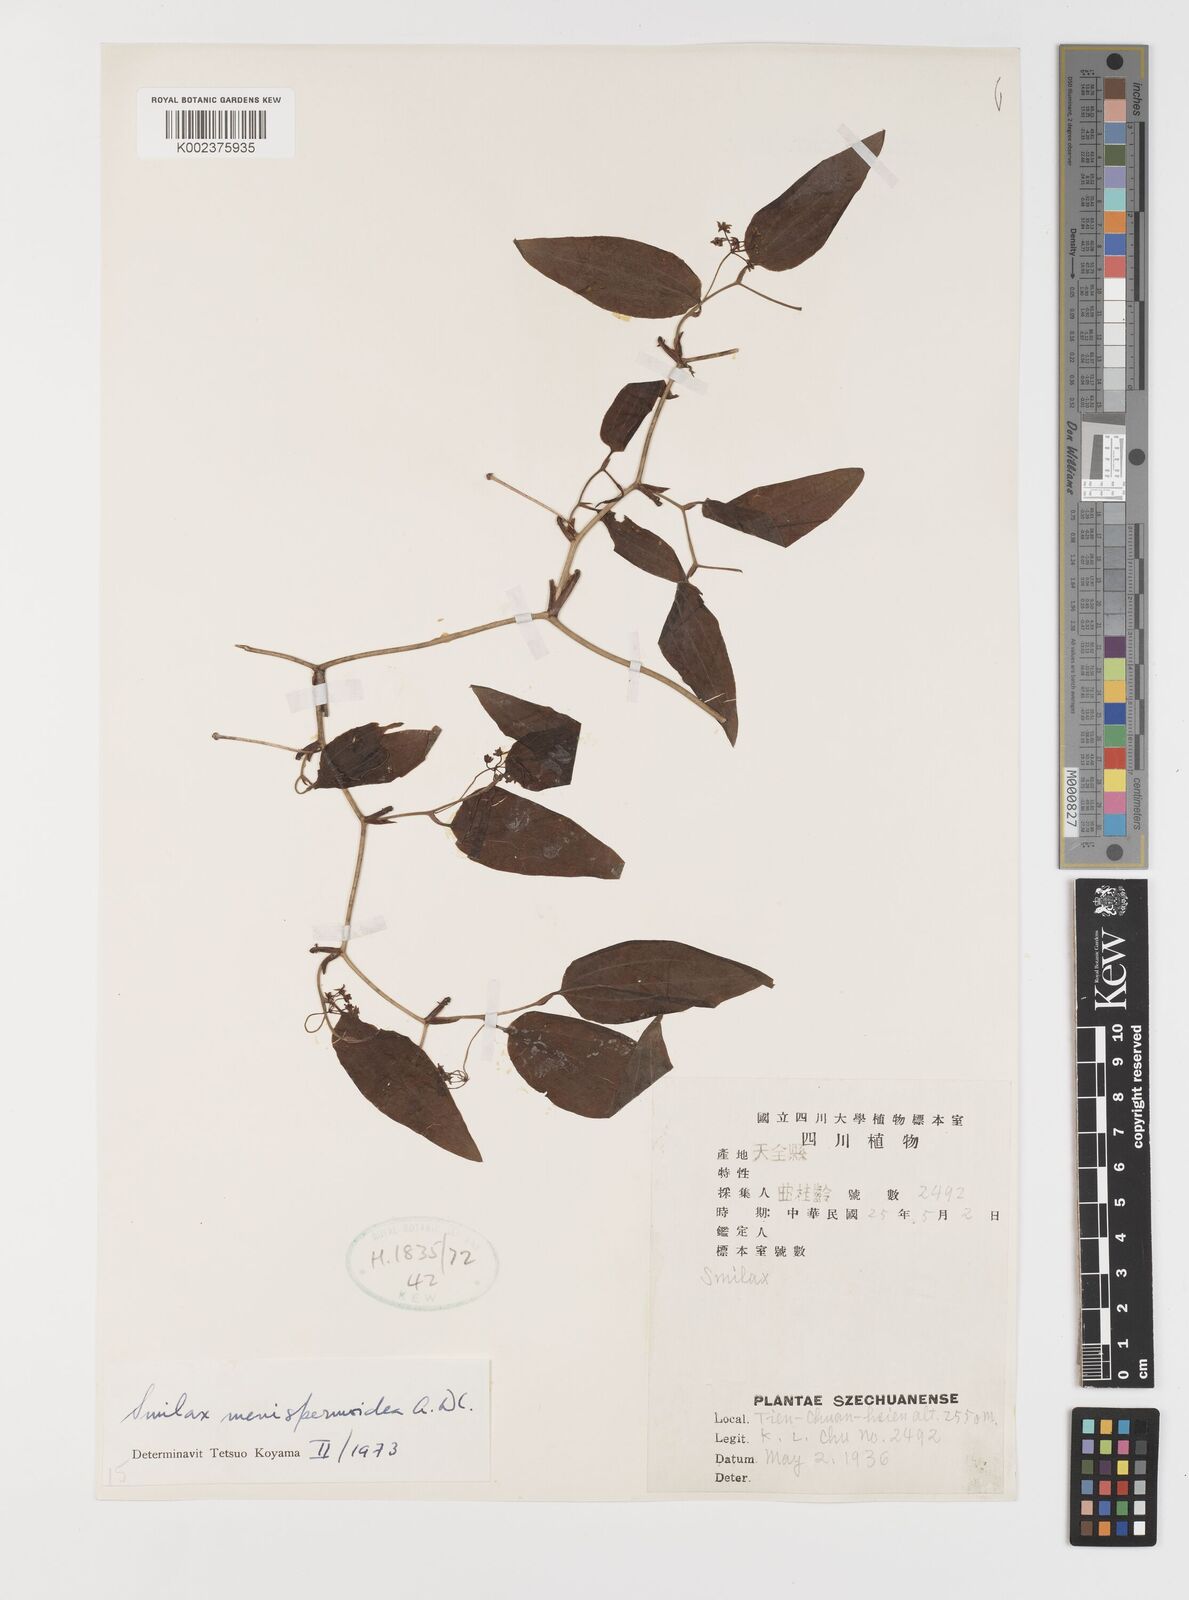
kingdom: Plantae
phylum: Tracheophyta
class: Liliopsida
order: Liliales
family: Smilacaceae
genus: Smilax
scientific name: Smilax menispermoidea
